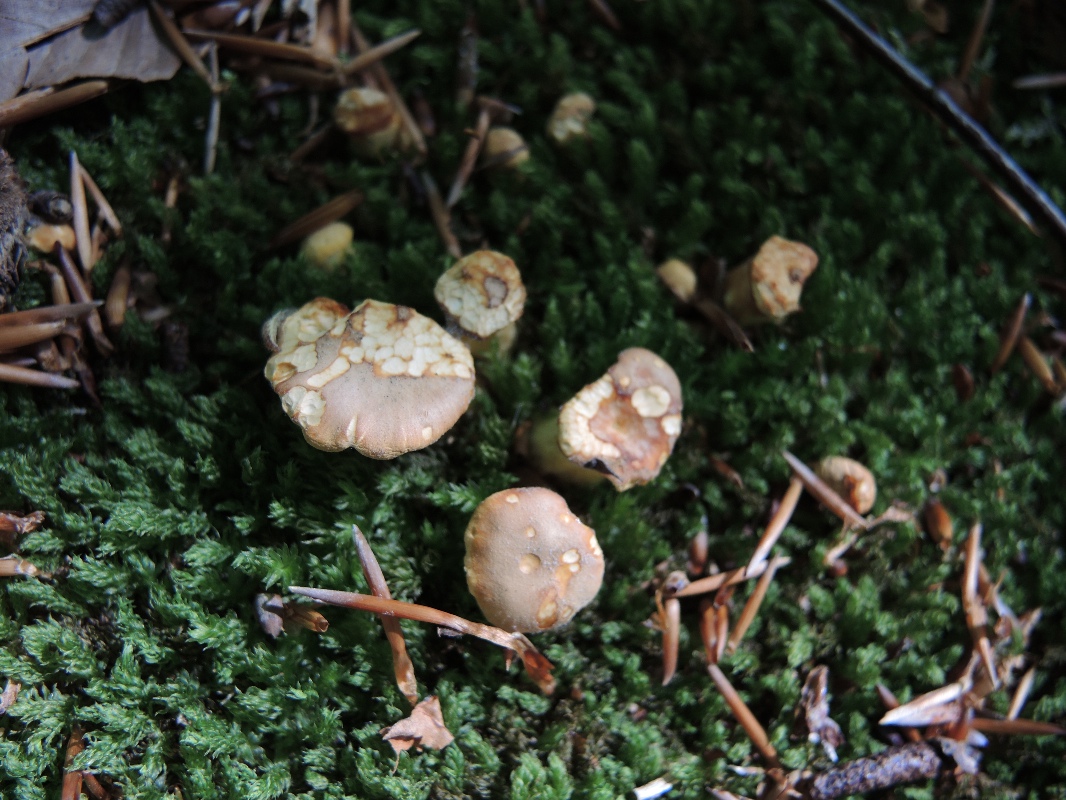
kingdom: Fungi
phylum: Basidiomycota
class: Agaricomycetes
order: Cantharellales
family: Hydnaceae
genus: Cantharellus
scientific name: Cantharellus pallens
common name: bleg kantarel
